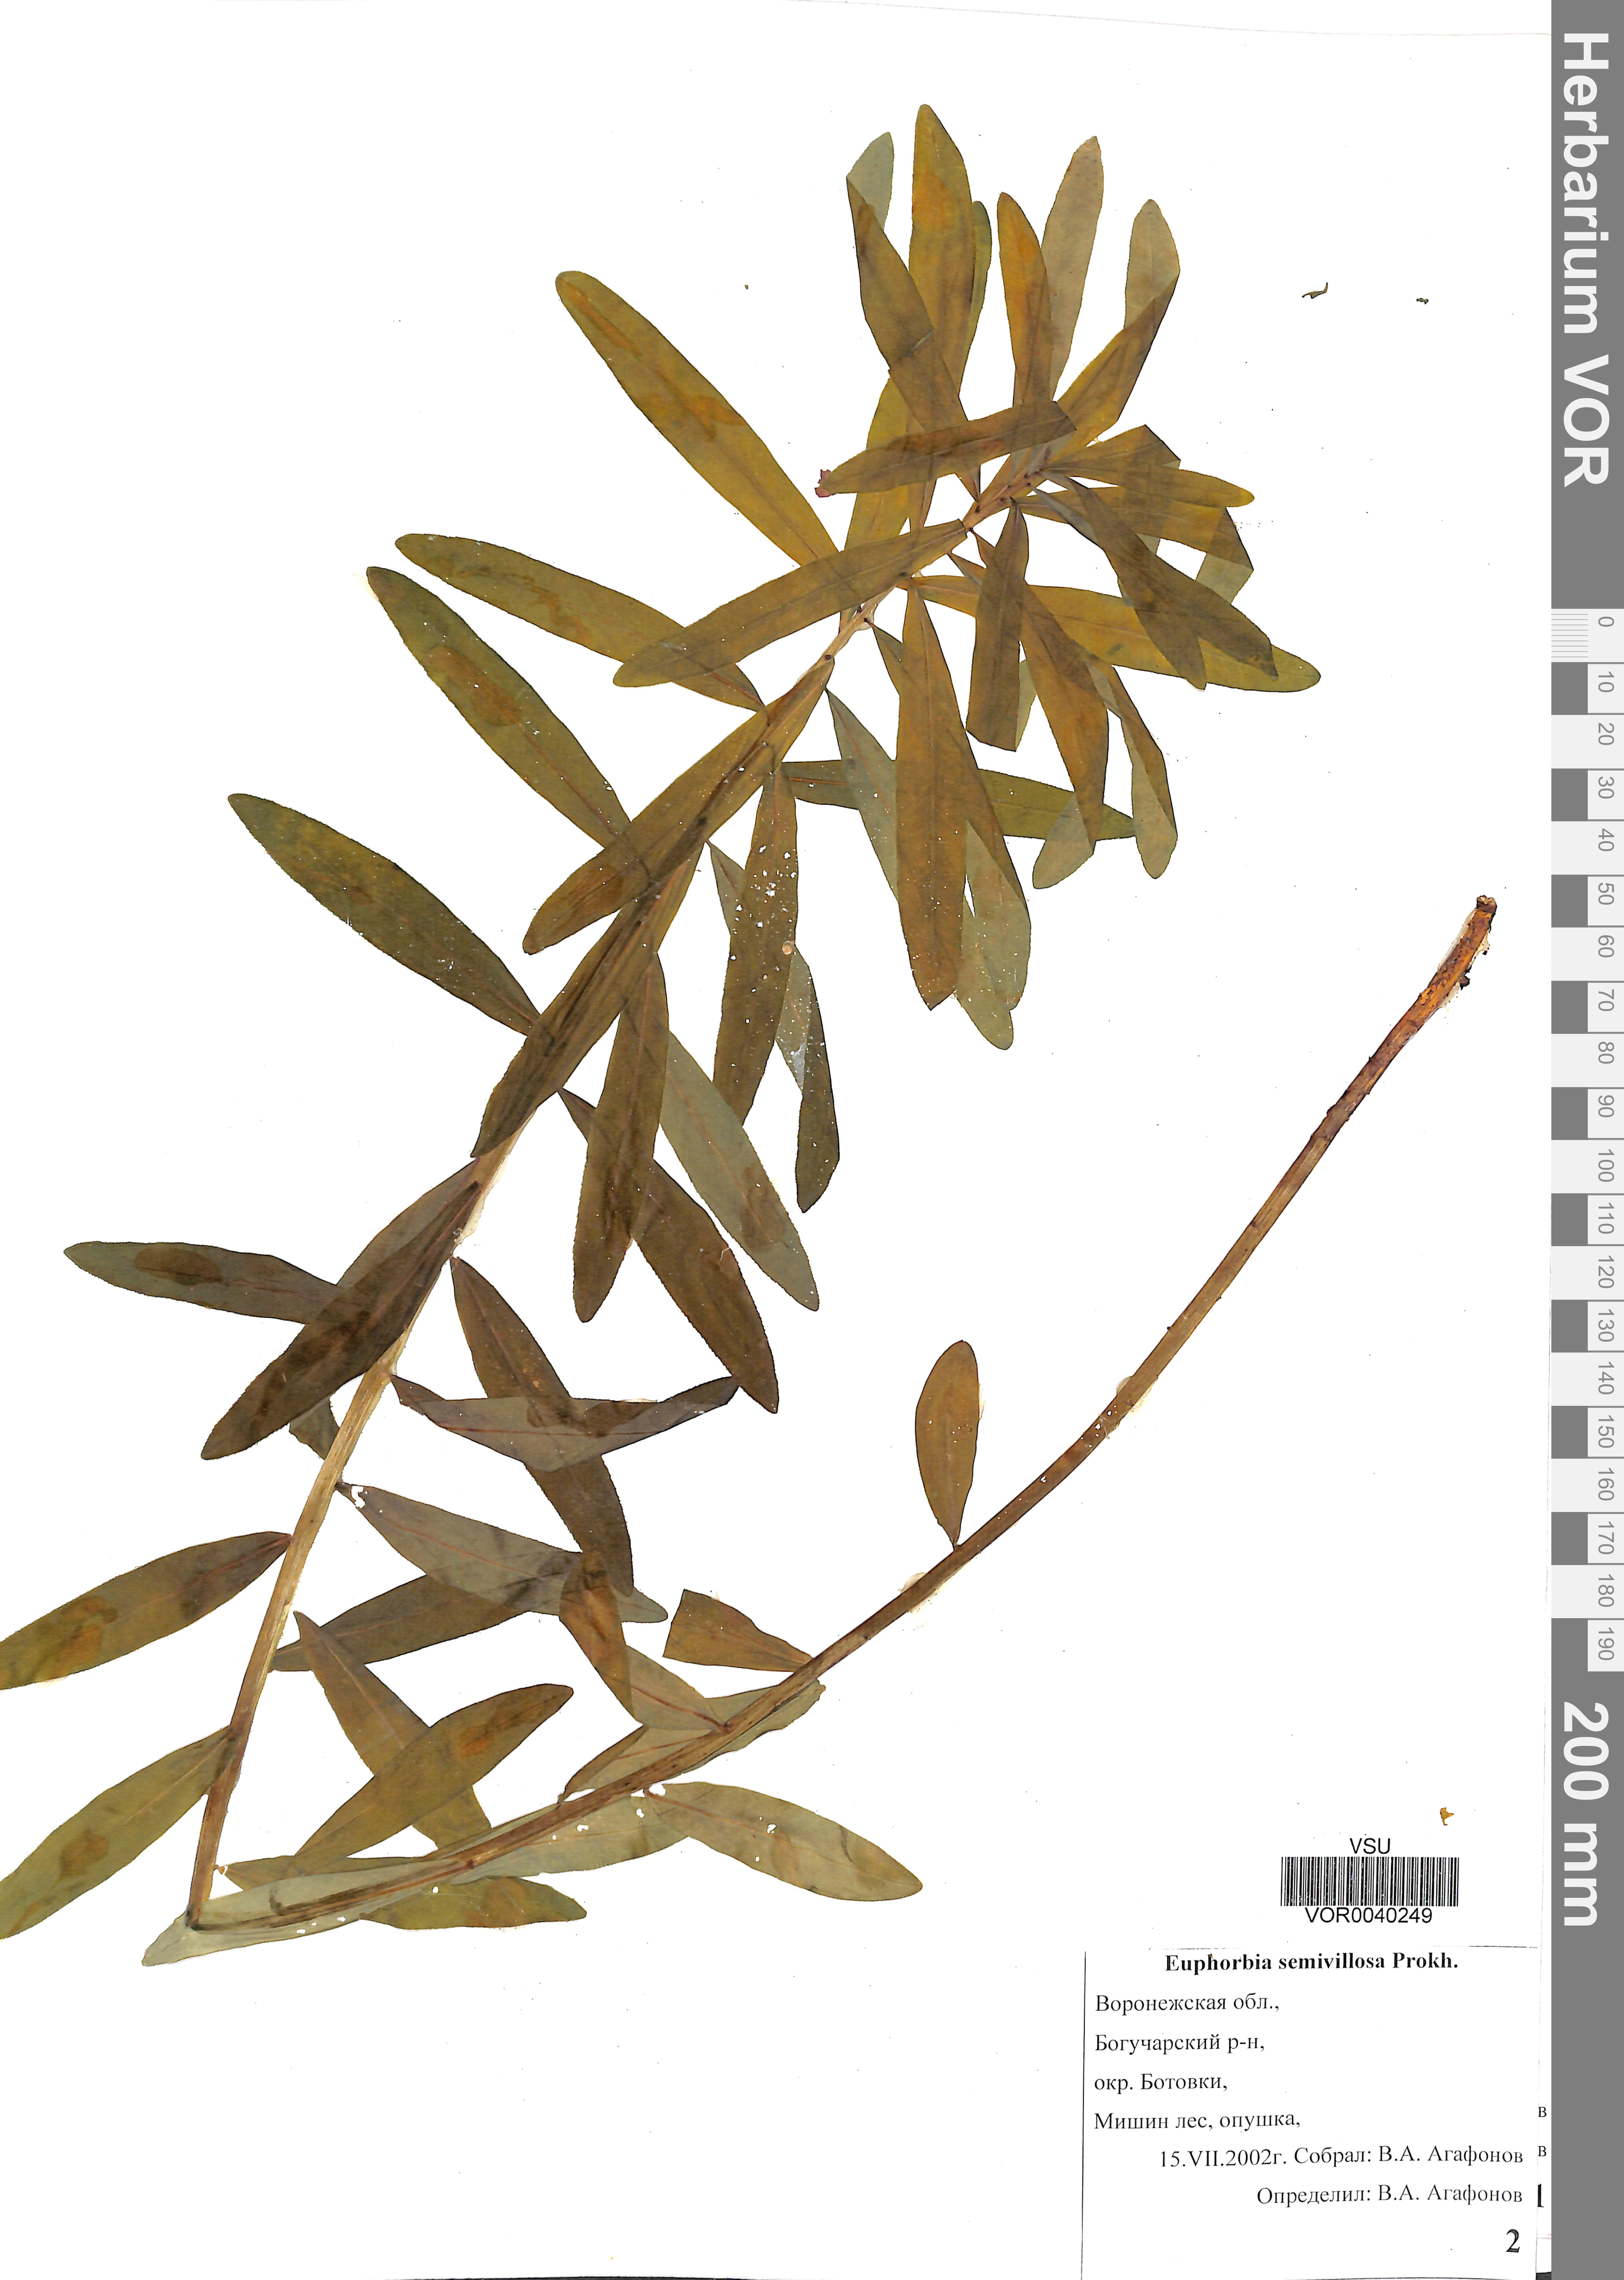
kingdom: Plantae
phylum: Tracheophyta
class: Magnoliopsida
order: Malpighiales
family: Euphorbiaceae
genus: Euphorbia
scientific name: Euphorbia semivillosa
